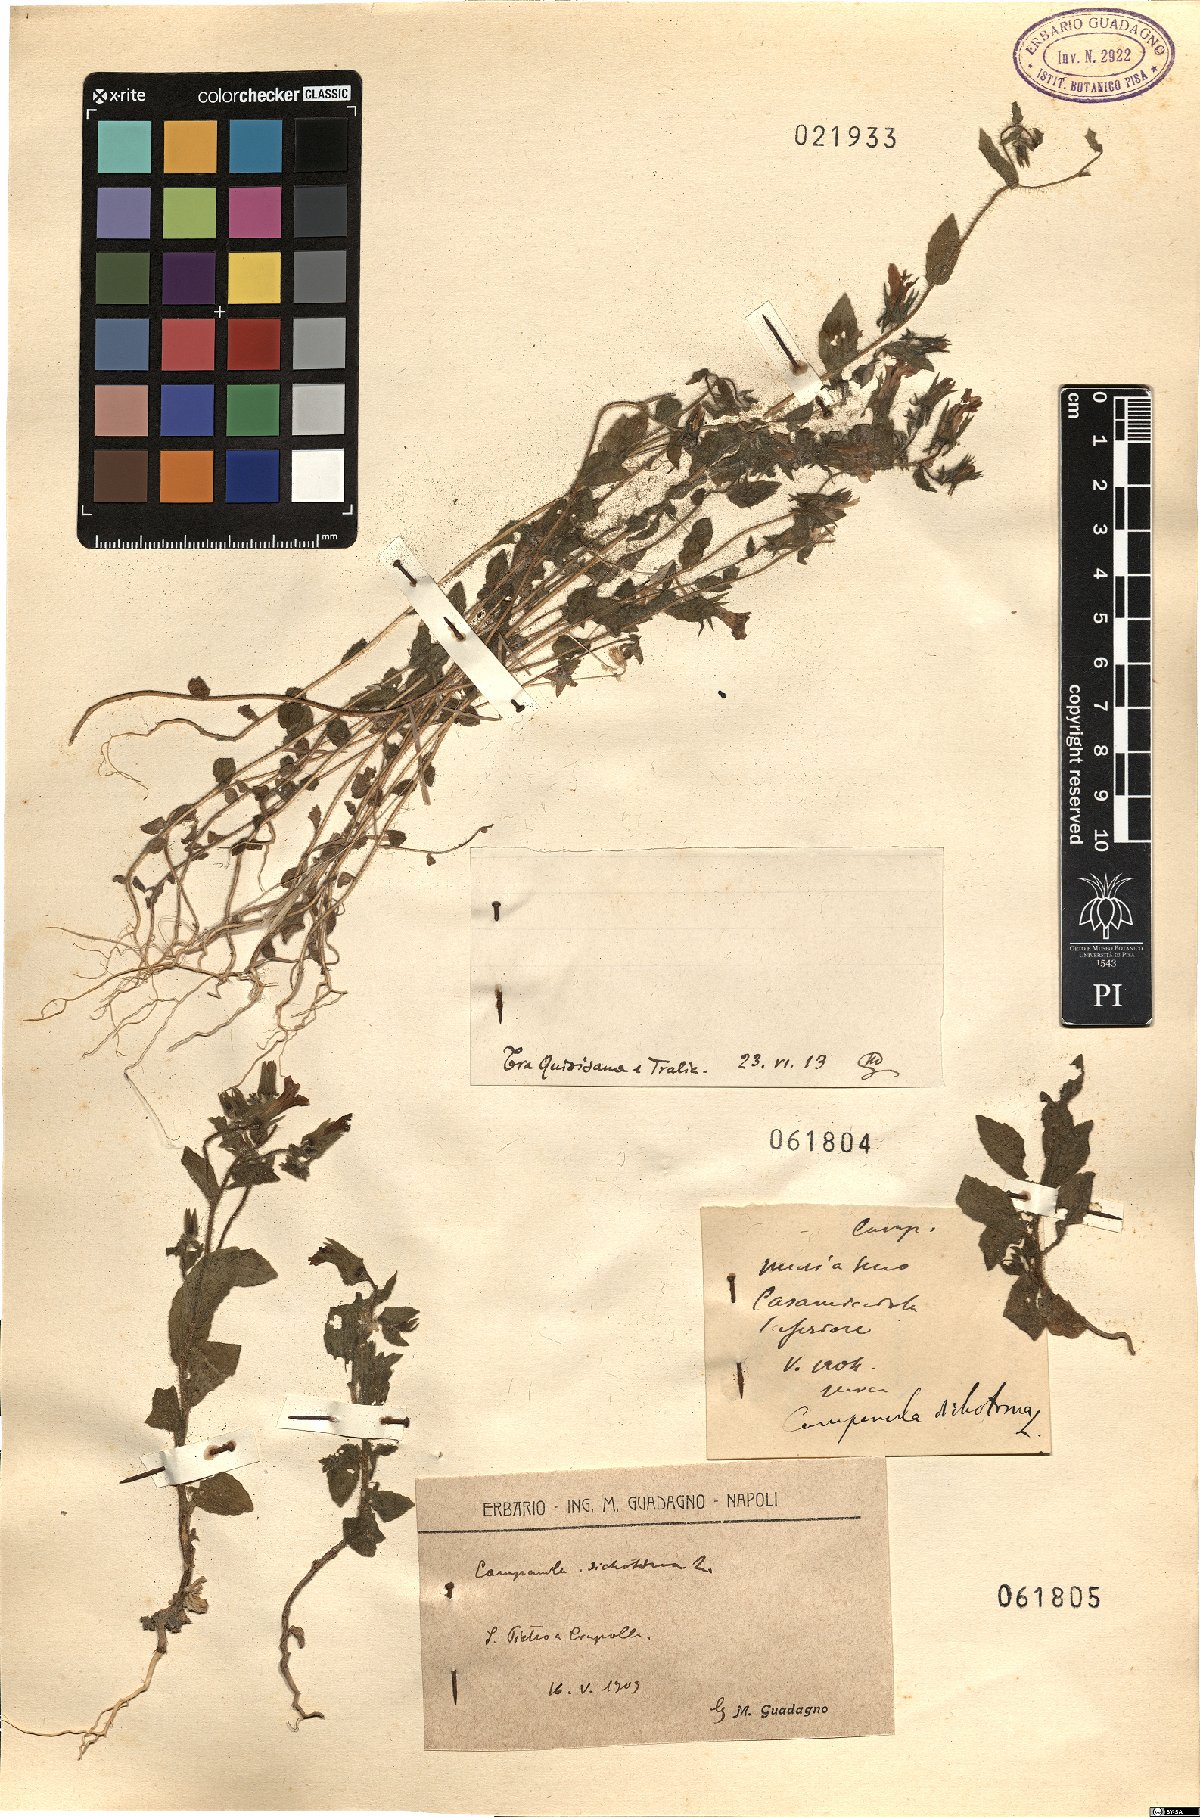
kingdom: Plantae
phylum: Tracheophyta
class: Magnoliopsida
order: Asterales
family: Campanulaceae
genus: Campanula
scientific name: Campanula dichotoma
